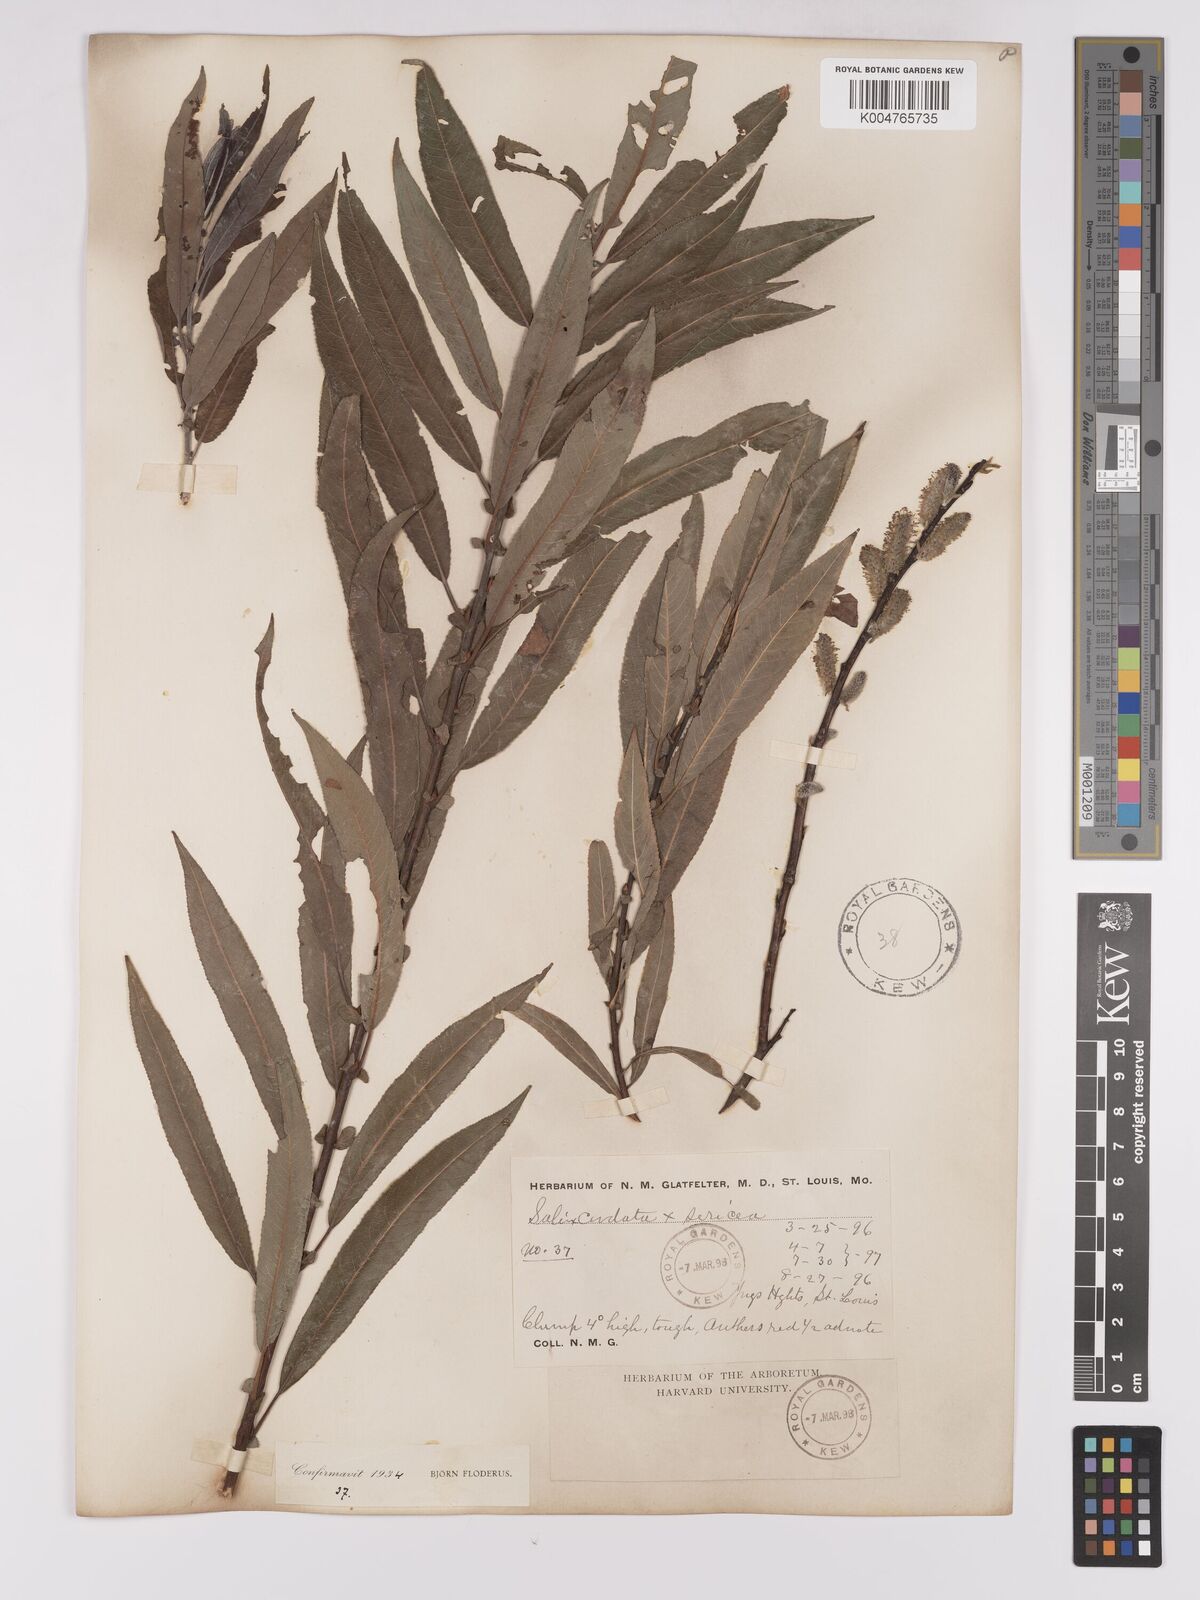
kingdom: Plantae
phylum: Tracheophyta
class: Magnoliopsida
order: Malpighiales
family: Salicaceae
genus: Salix
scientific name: Salix cordata
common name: Heart-leaf willow
